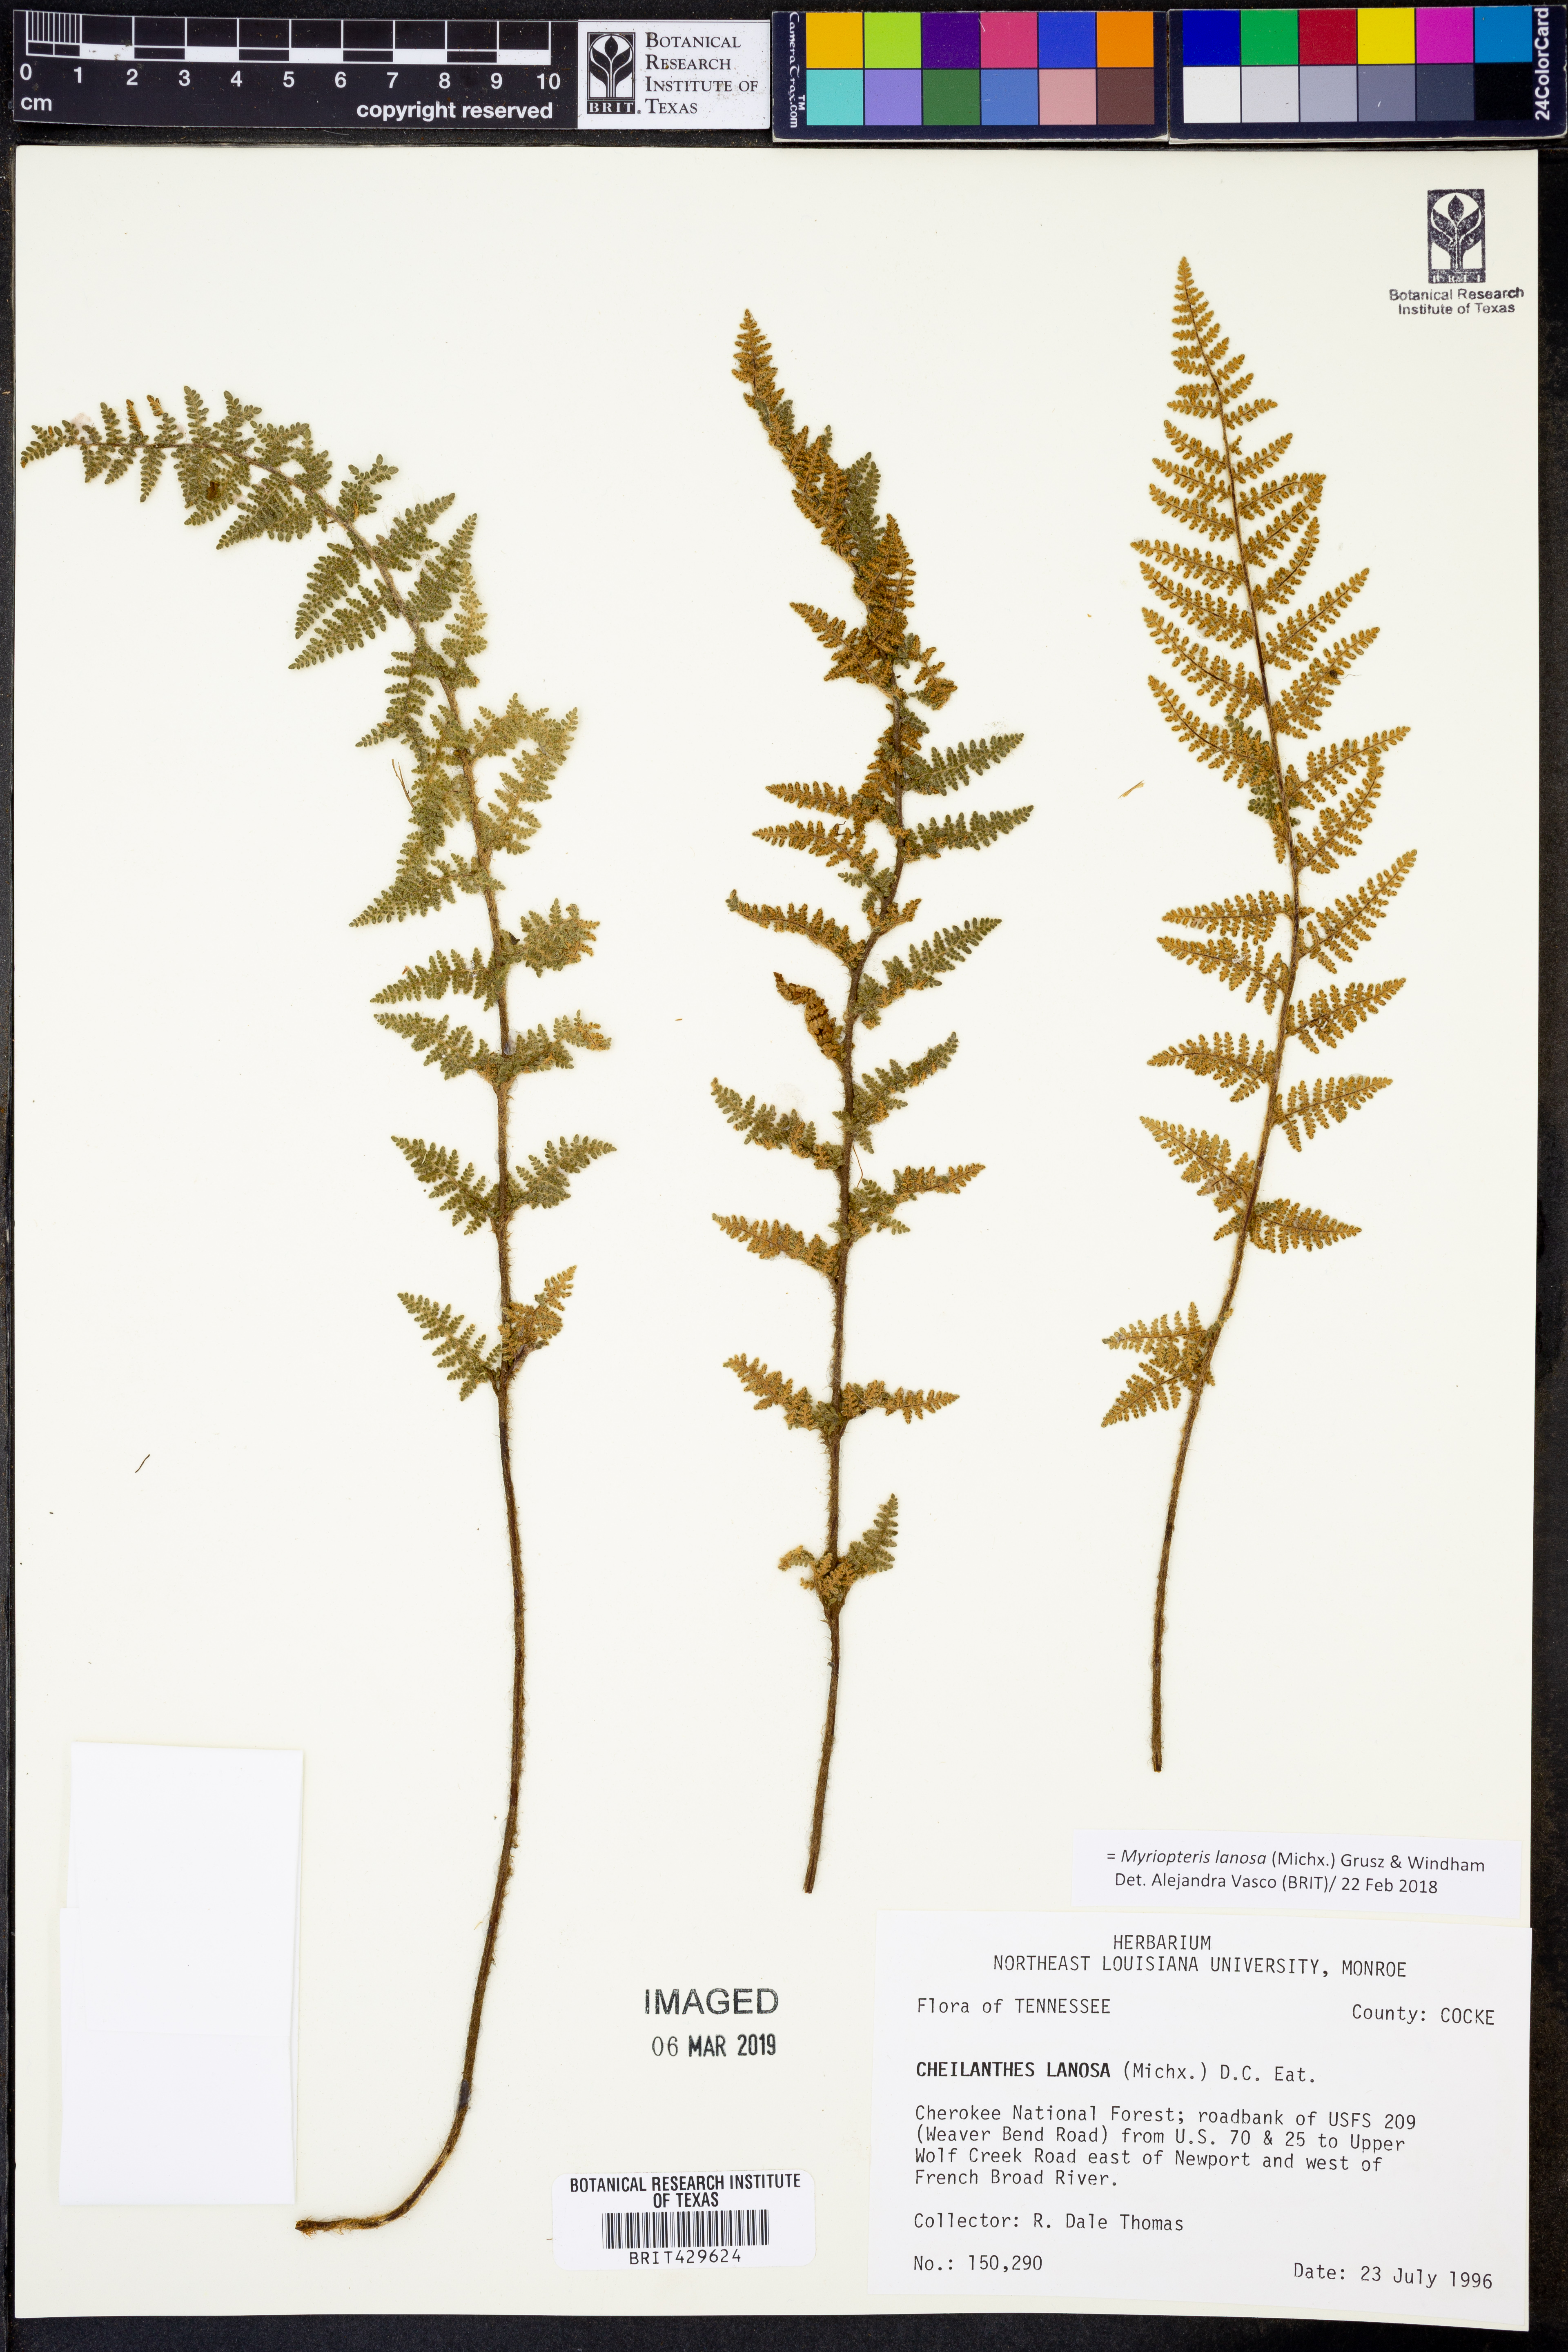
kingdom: Plantae
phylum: Tracheophyta
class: Polypodiopsida
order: Polypodiales
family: Pteridaceae
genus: Myriopteris
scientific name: Myriopteris lanosa
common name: Hairy lip fern
